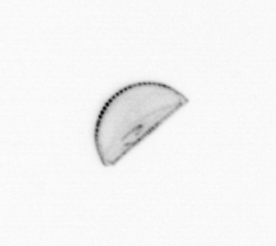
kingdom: Chromista
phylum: Ochrophyta
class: Bacillariophyceae
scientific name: Bacillariophyceae
